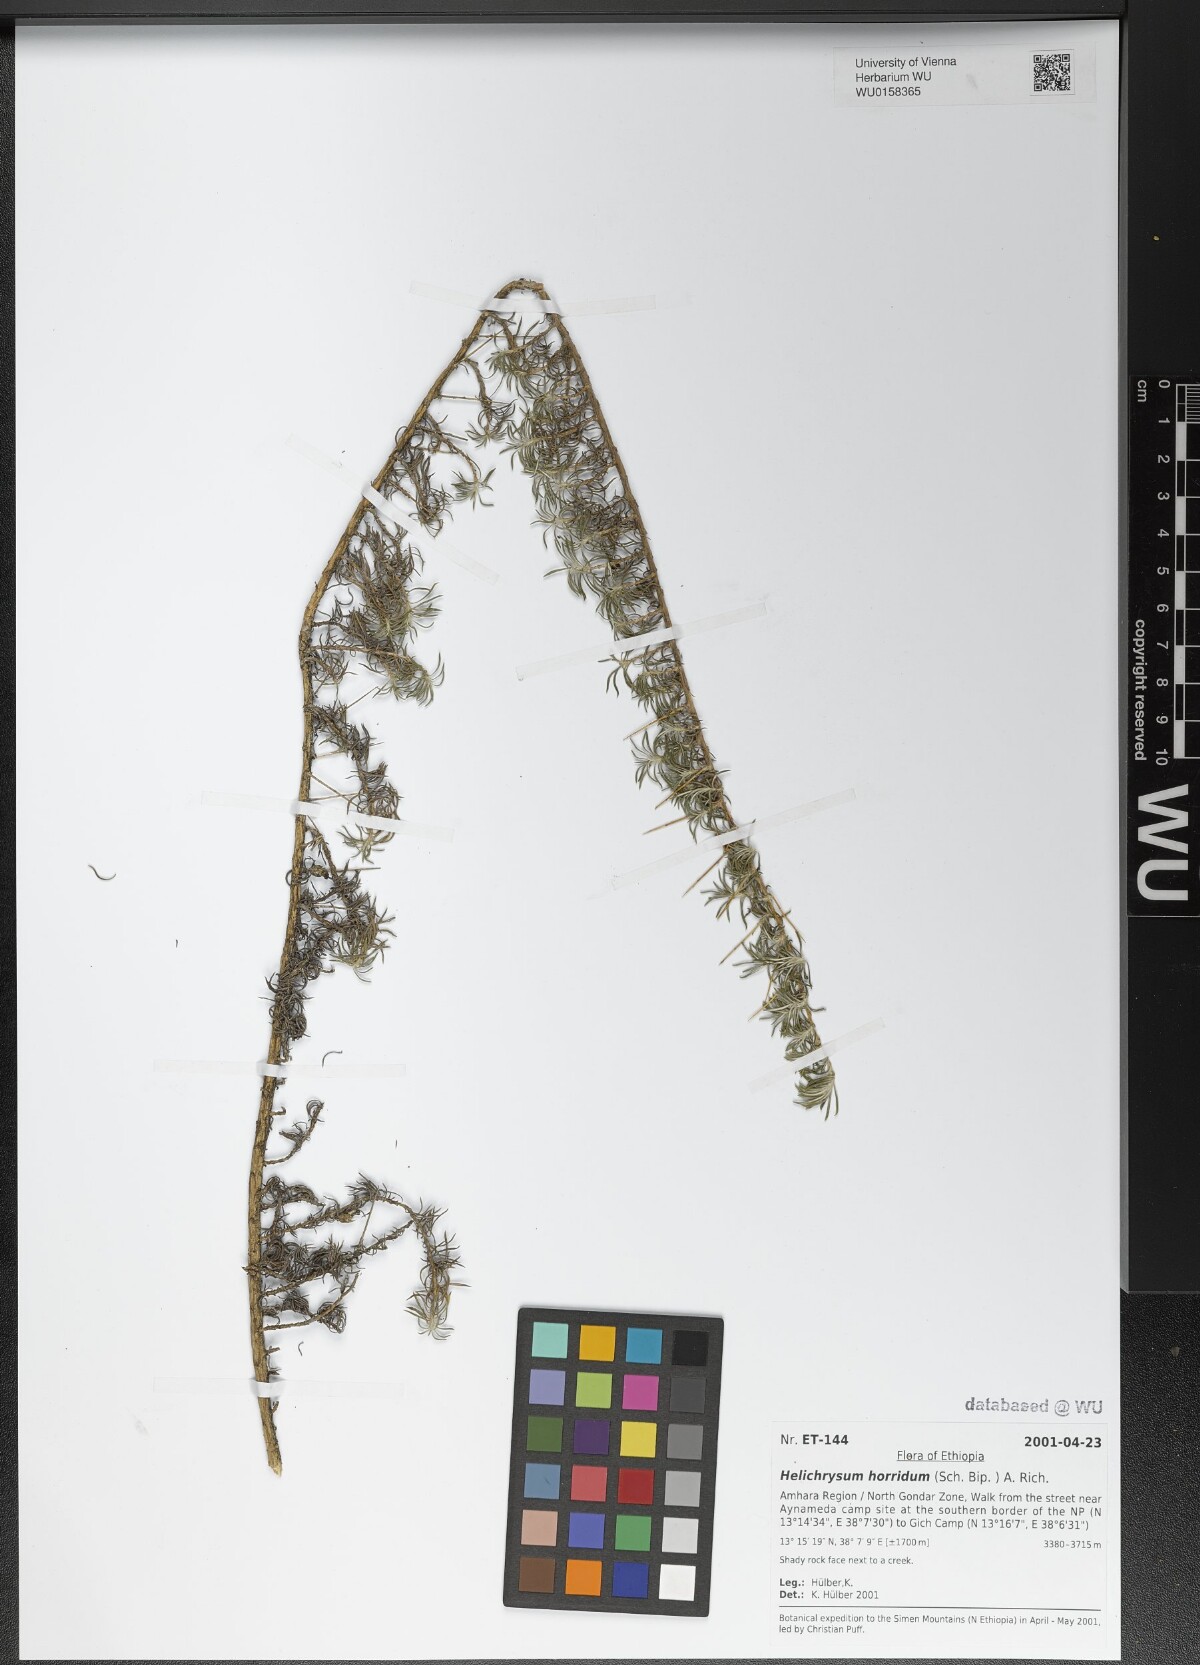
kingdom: Plantae
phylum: Tracheophyta
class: Magnoliopsida
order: Asterales
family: Asteraceae
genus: Helichrysum
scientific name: Helichrysum horridum
